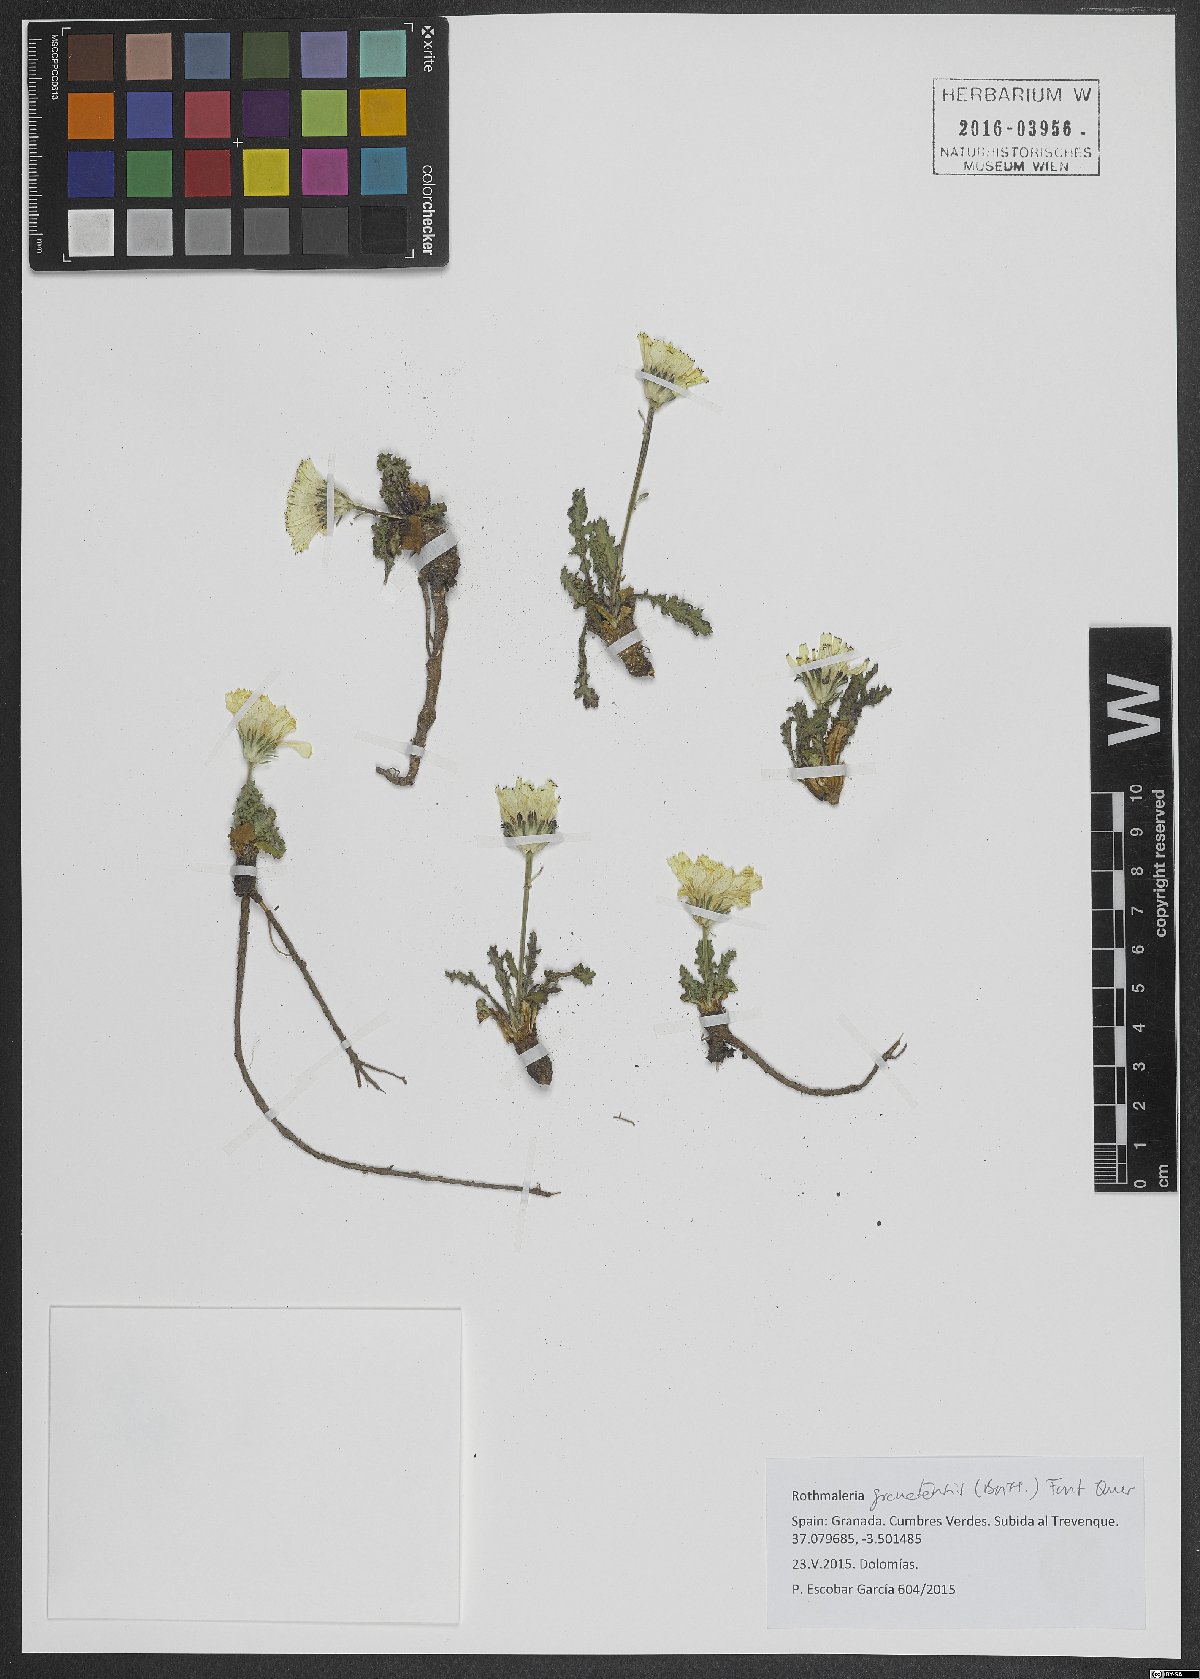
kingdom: Plantae
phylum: Tracheophyta
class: Magnoliopsida
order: Asterales
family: Asteraceae
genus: Rothmaleria
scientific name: Rothmaleria granatensis
